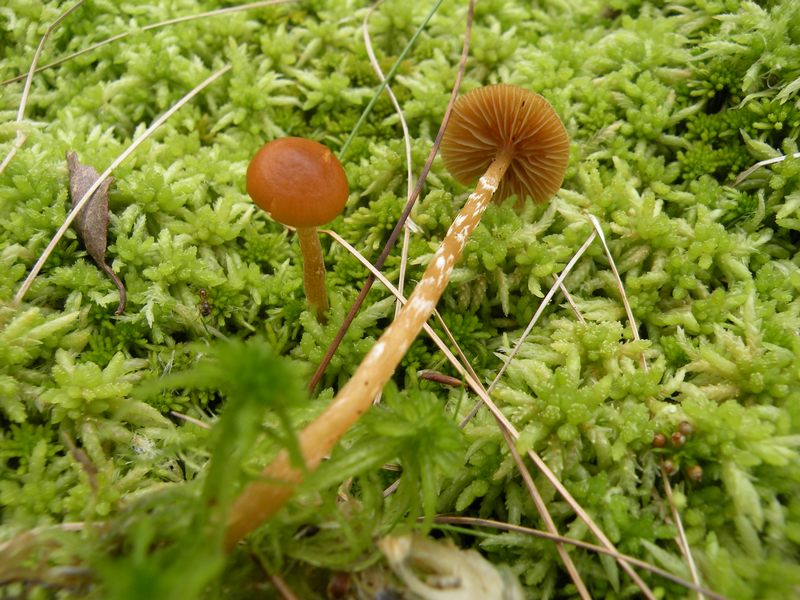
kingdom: Fungi
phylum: Basidiomycota
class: Agaricomycetes
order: Agaricales
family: Hymenogastraceae
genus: Galerina
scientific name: Galerina paludosa
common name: mose-hjelmhat
